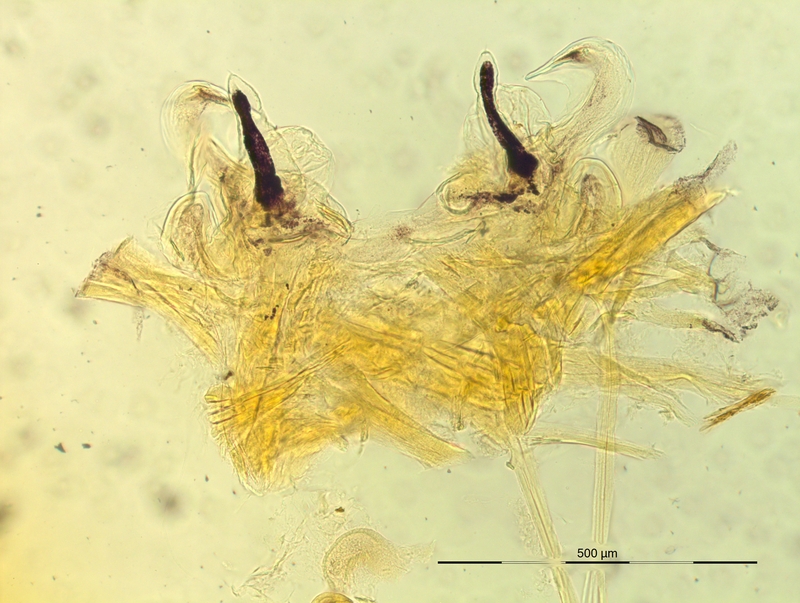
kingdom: Animalia
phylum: Arthropoda
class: Diplopoda
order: Chordeumatida
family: Craspedosomatidae
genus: Oxydactylon
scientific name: Oxydactylon hamuligerum
